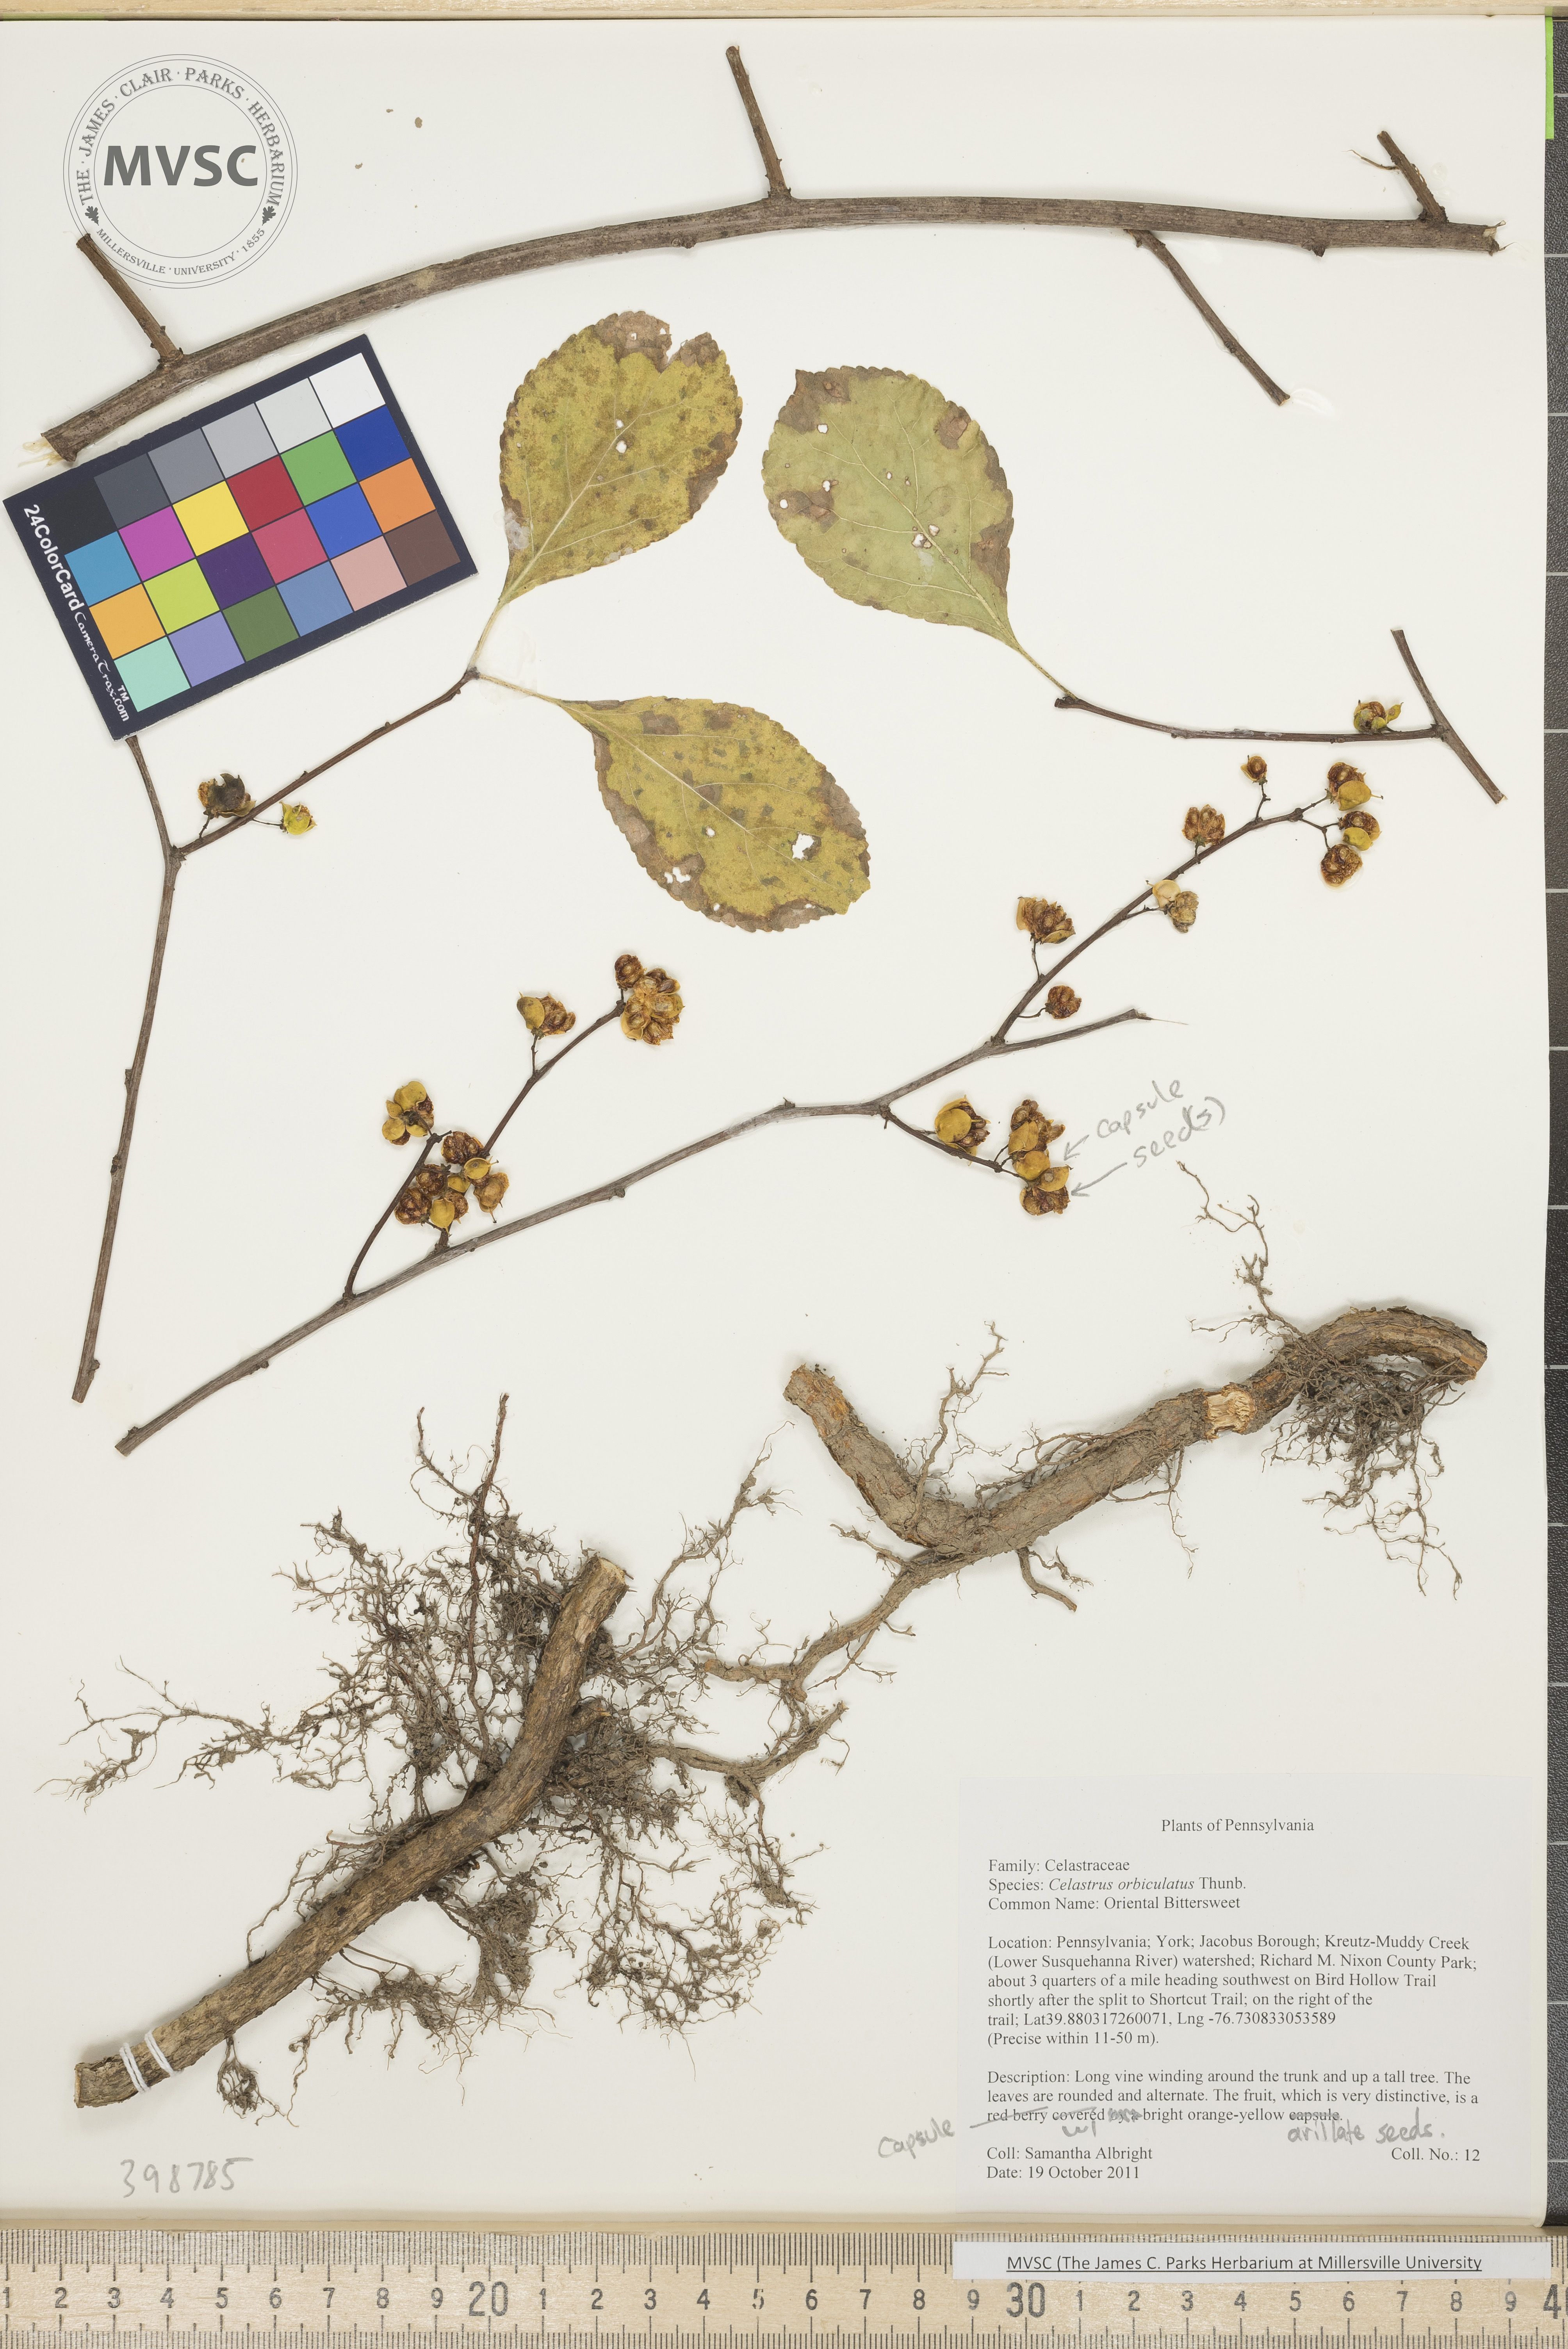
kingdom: Plantae
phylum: Tracheophyta
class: Magnoliopsida
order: Celastrales
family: Celastraceae
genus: Celastrus
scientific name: Celastrus orbiculatus
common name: Oriental bittersweet
